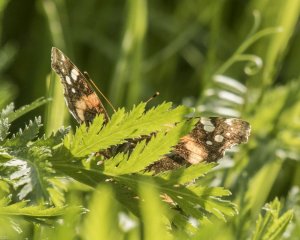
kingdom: Animalia
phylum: Arthropoda
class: Insecta
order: Lepidoptera
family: Nymphalidae
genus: Vanessa
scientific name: Vanessa atalanta
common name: Red Admiral
